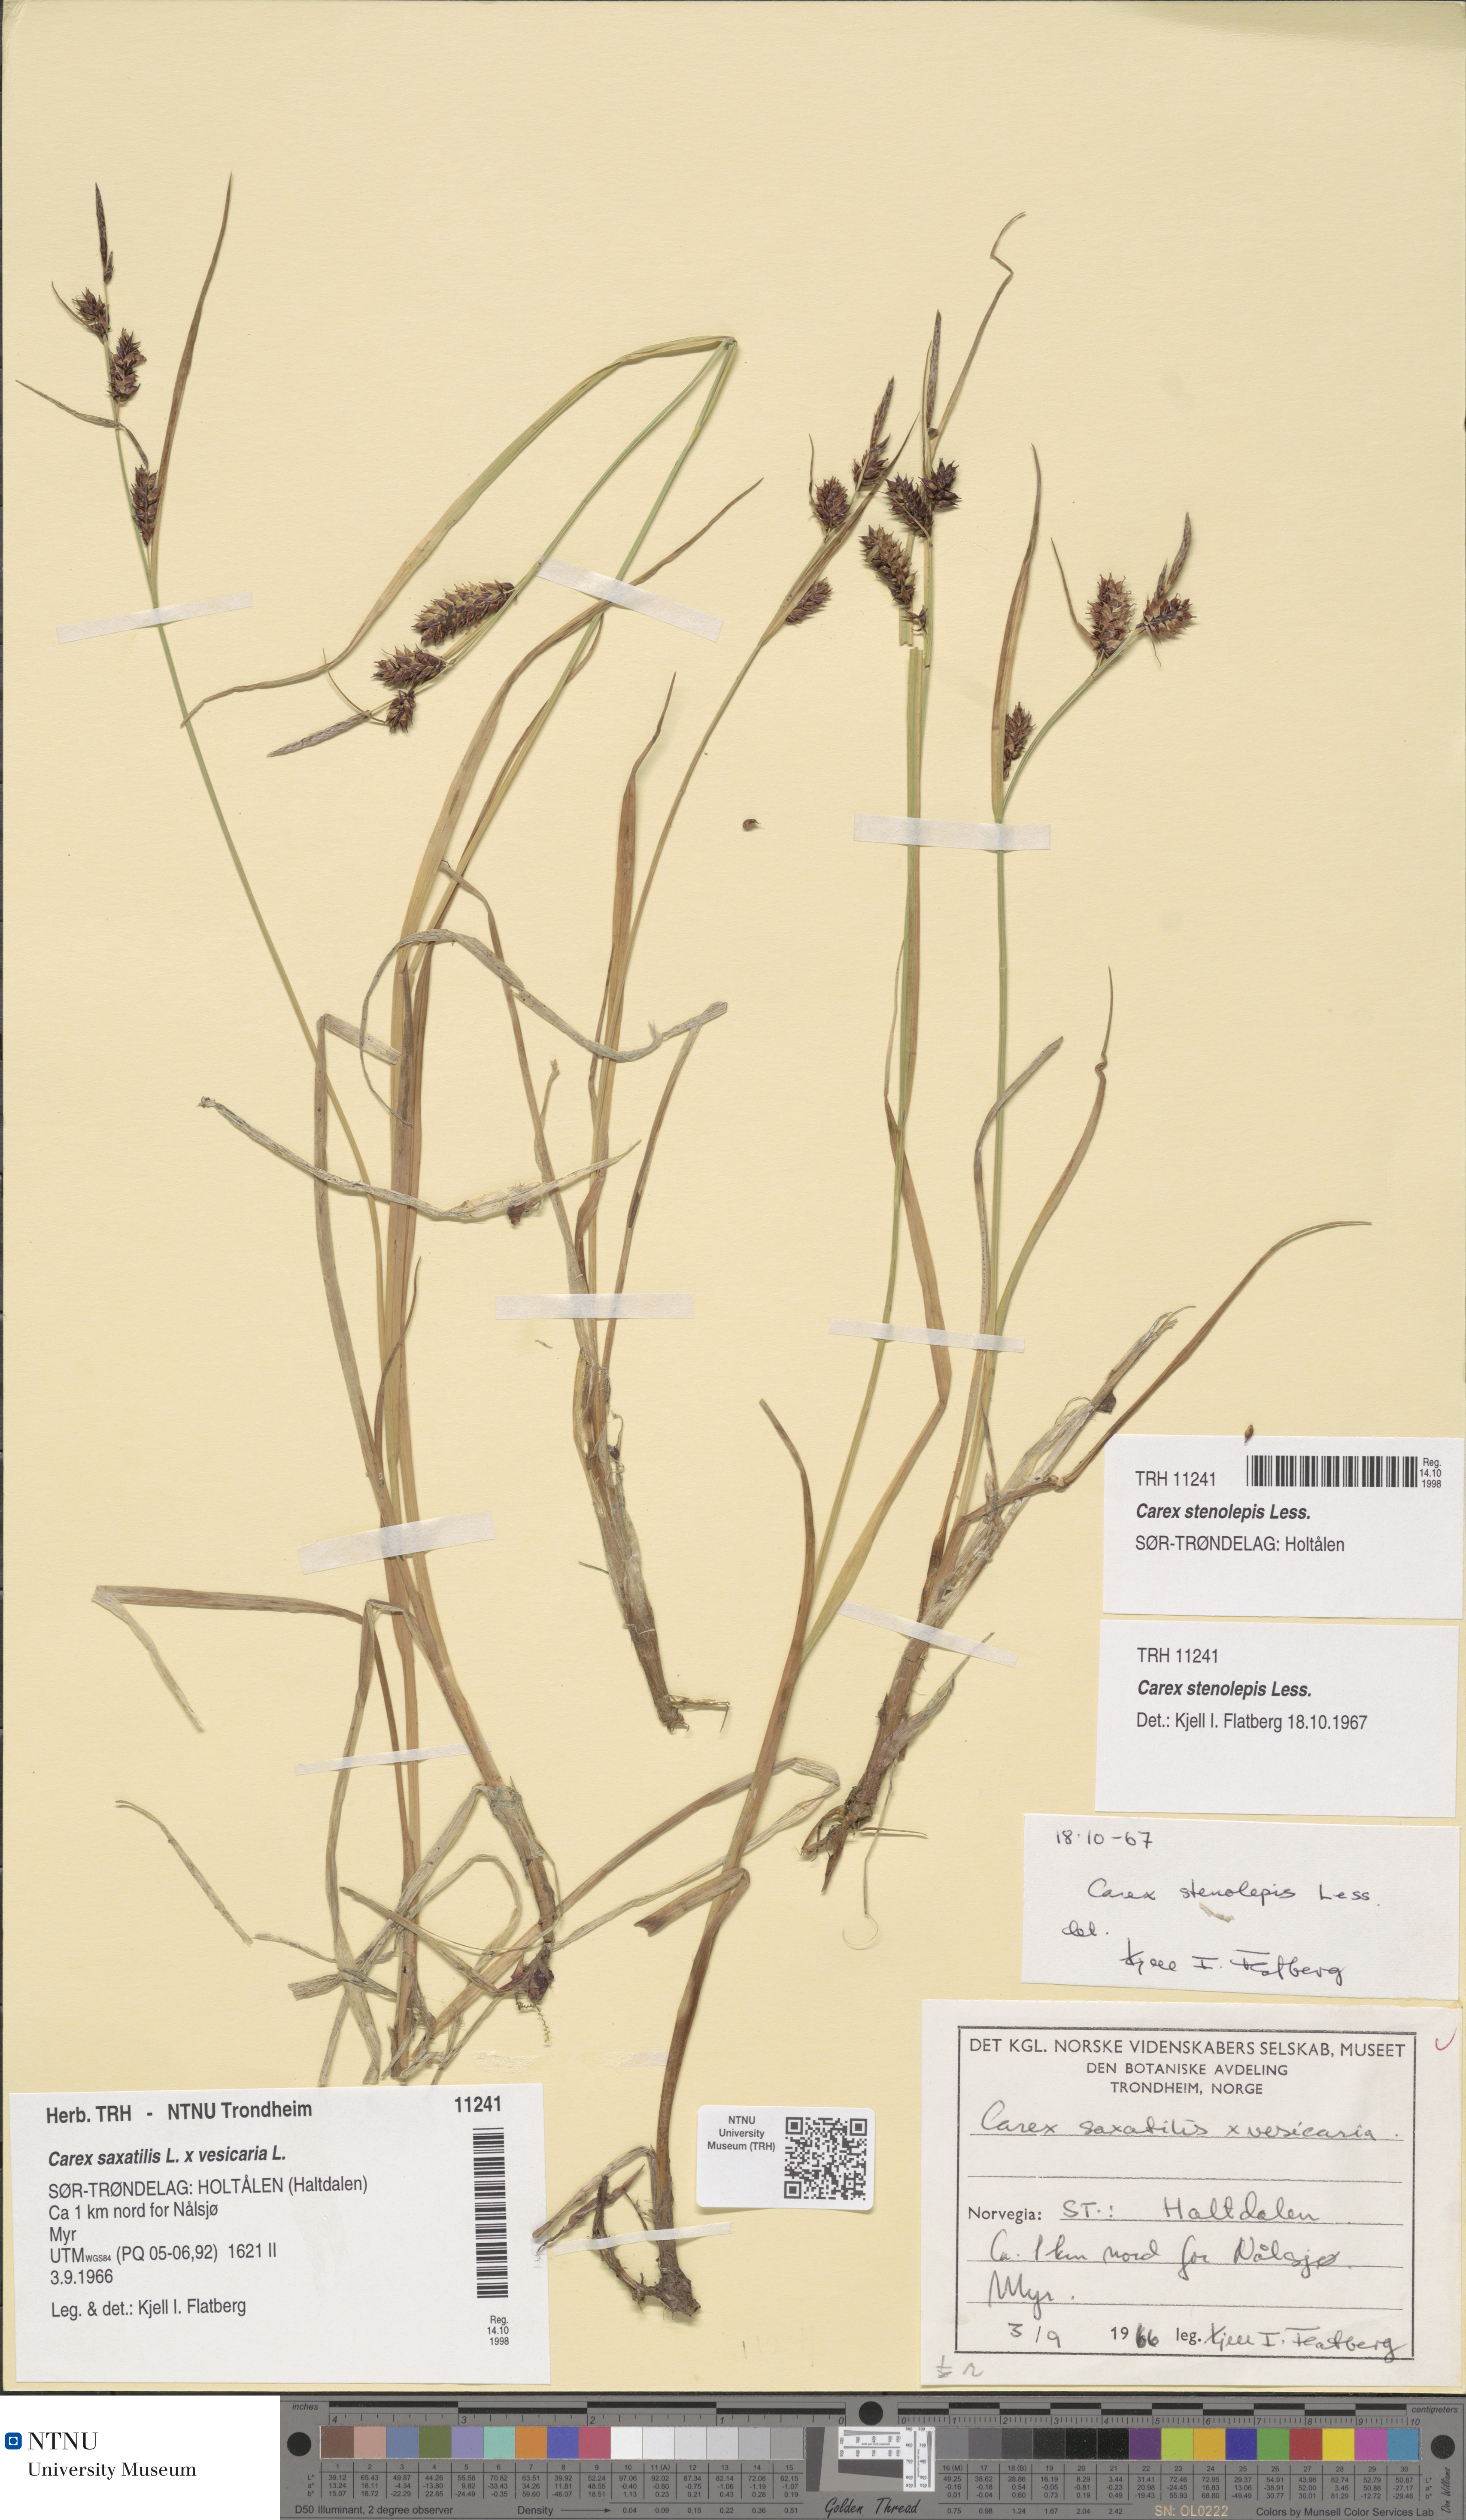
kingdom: Plantae
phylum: Tracheophyta
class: Liliopsida
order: Poales
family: Cyperaceae
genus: Carex
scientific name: Carex grahamii
